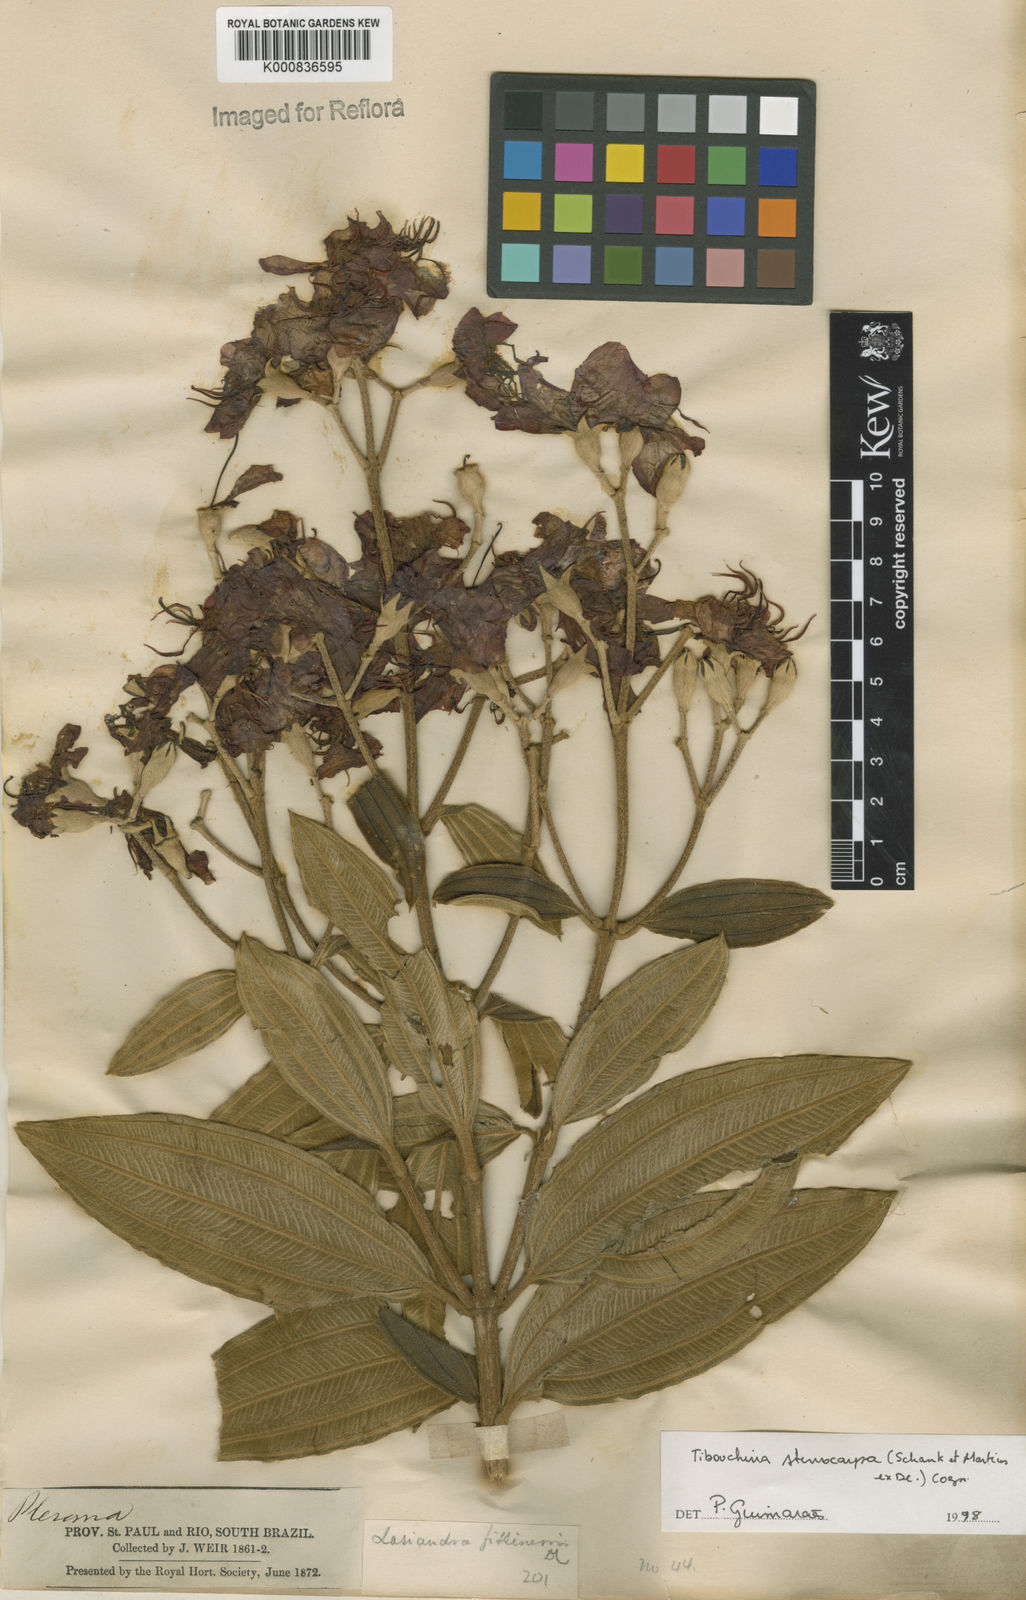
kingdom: Plantae
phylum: Tracheophyta
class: Magnoliopsida
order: Myrtales
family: Melastomataceae
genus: Pleroma
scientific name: Pleroma stenocarpum
